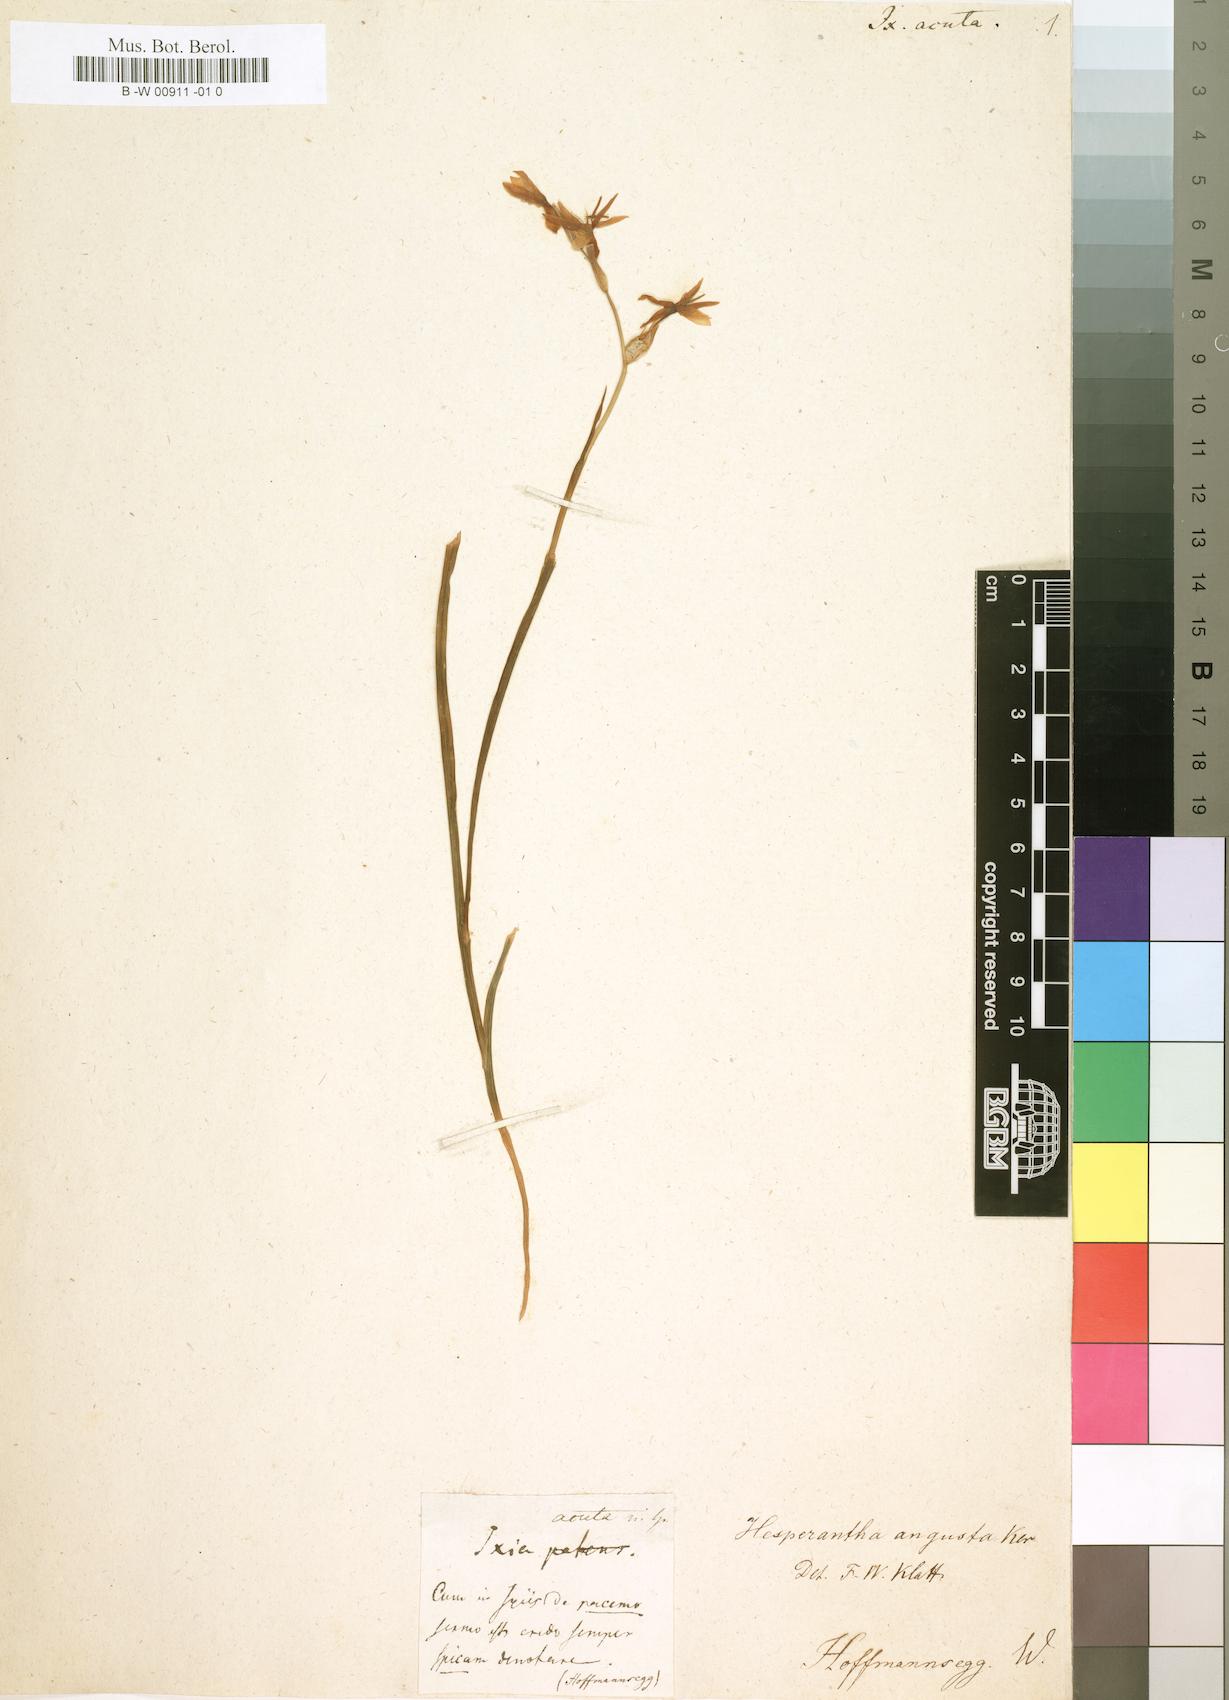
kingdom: Plantae
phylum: Tracheophyta
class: Liliopsida
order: Asparagales
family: Iridaceae
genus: Hesperantha
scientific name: Hesperantha acuta
